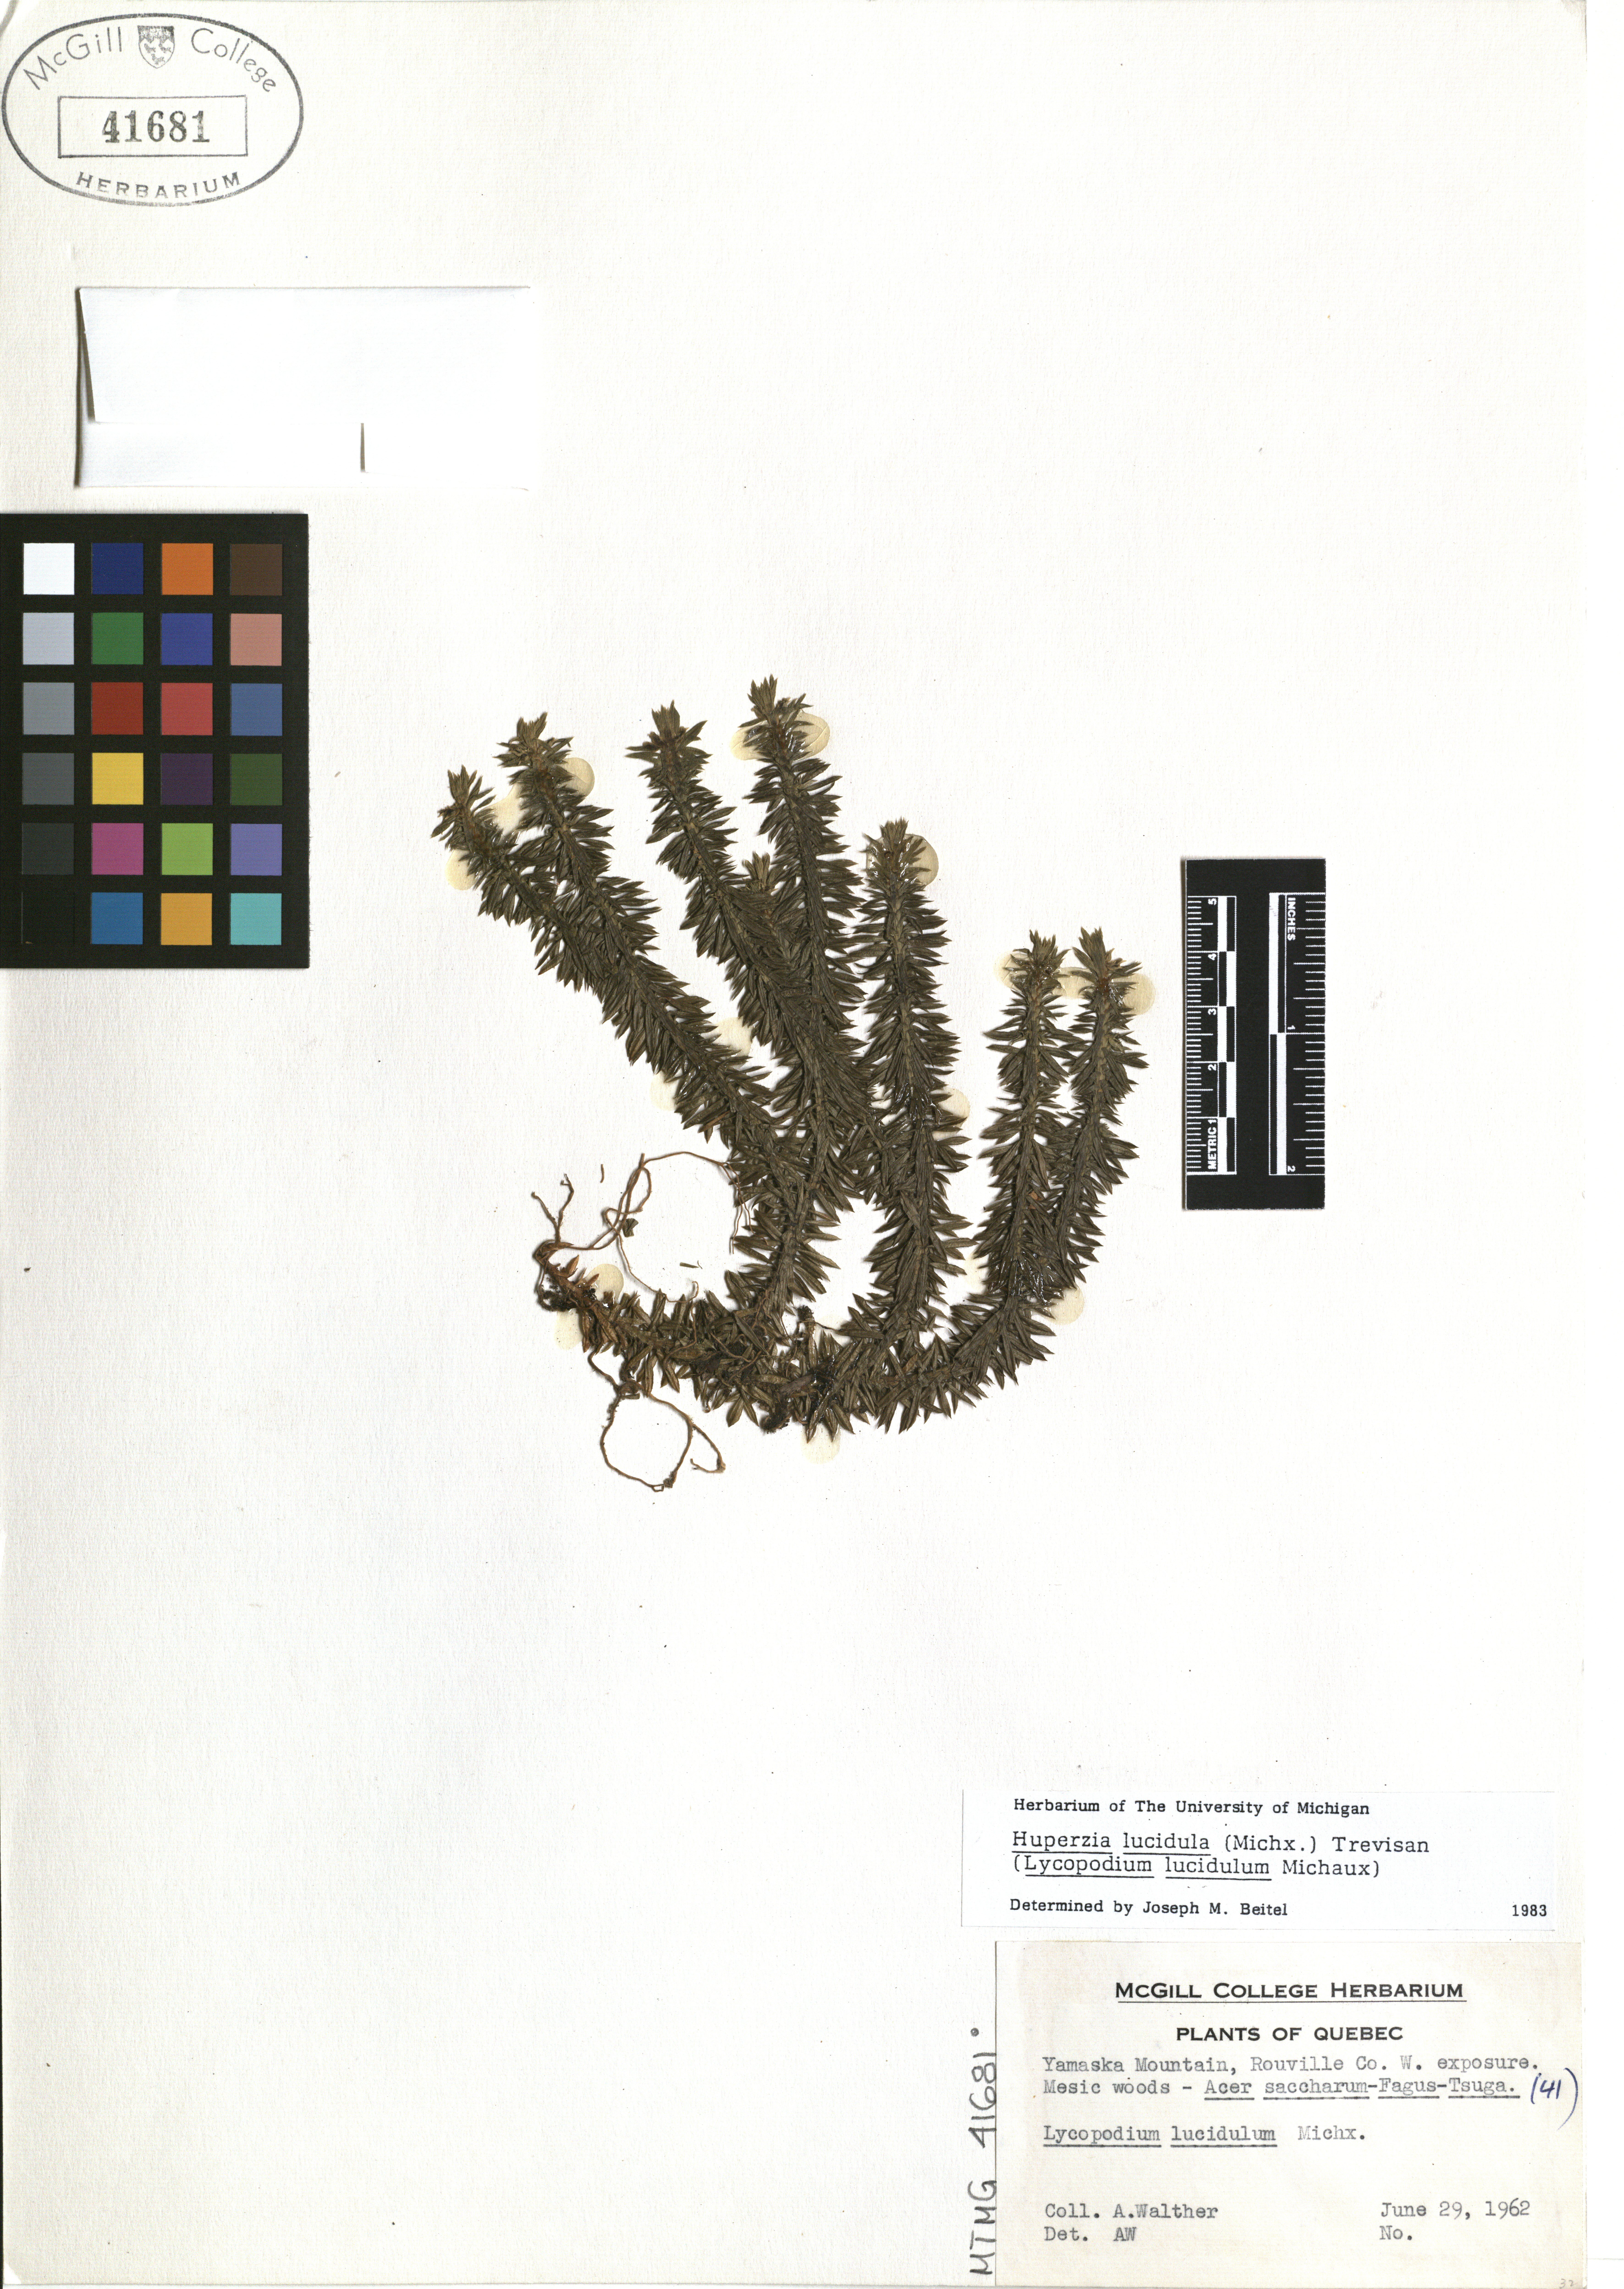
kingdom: Plantae
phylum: Tracheophyta
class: Lycopodiopsida
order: Lycopodiales
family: Lycopodiaceae
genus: Huperzia
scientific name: Huperzia lucidula
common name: Shining clubmoss
